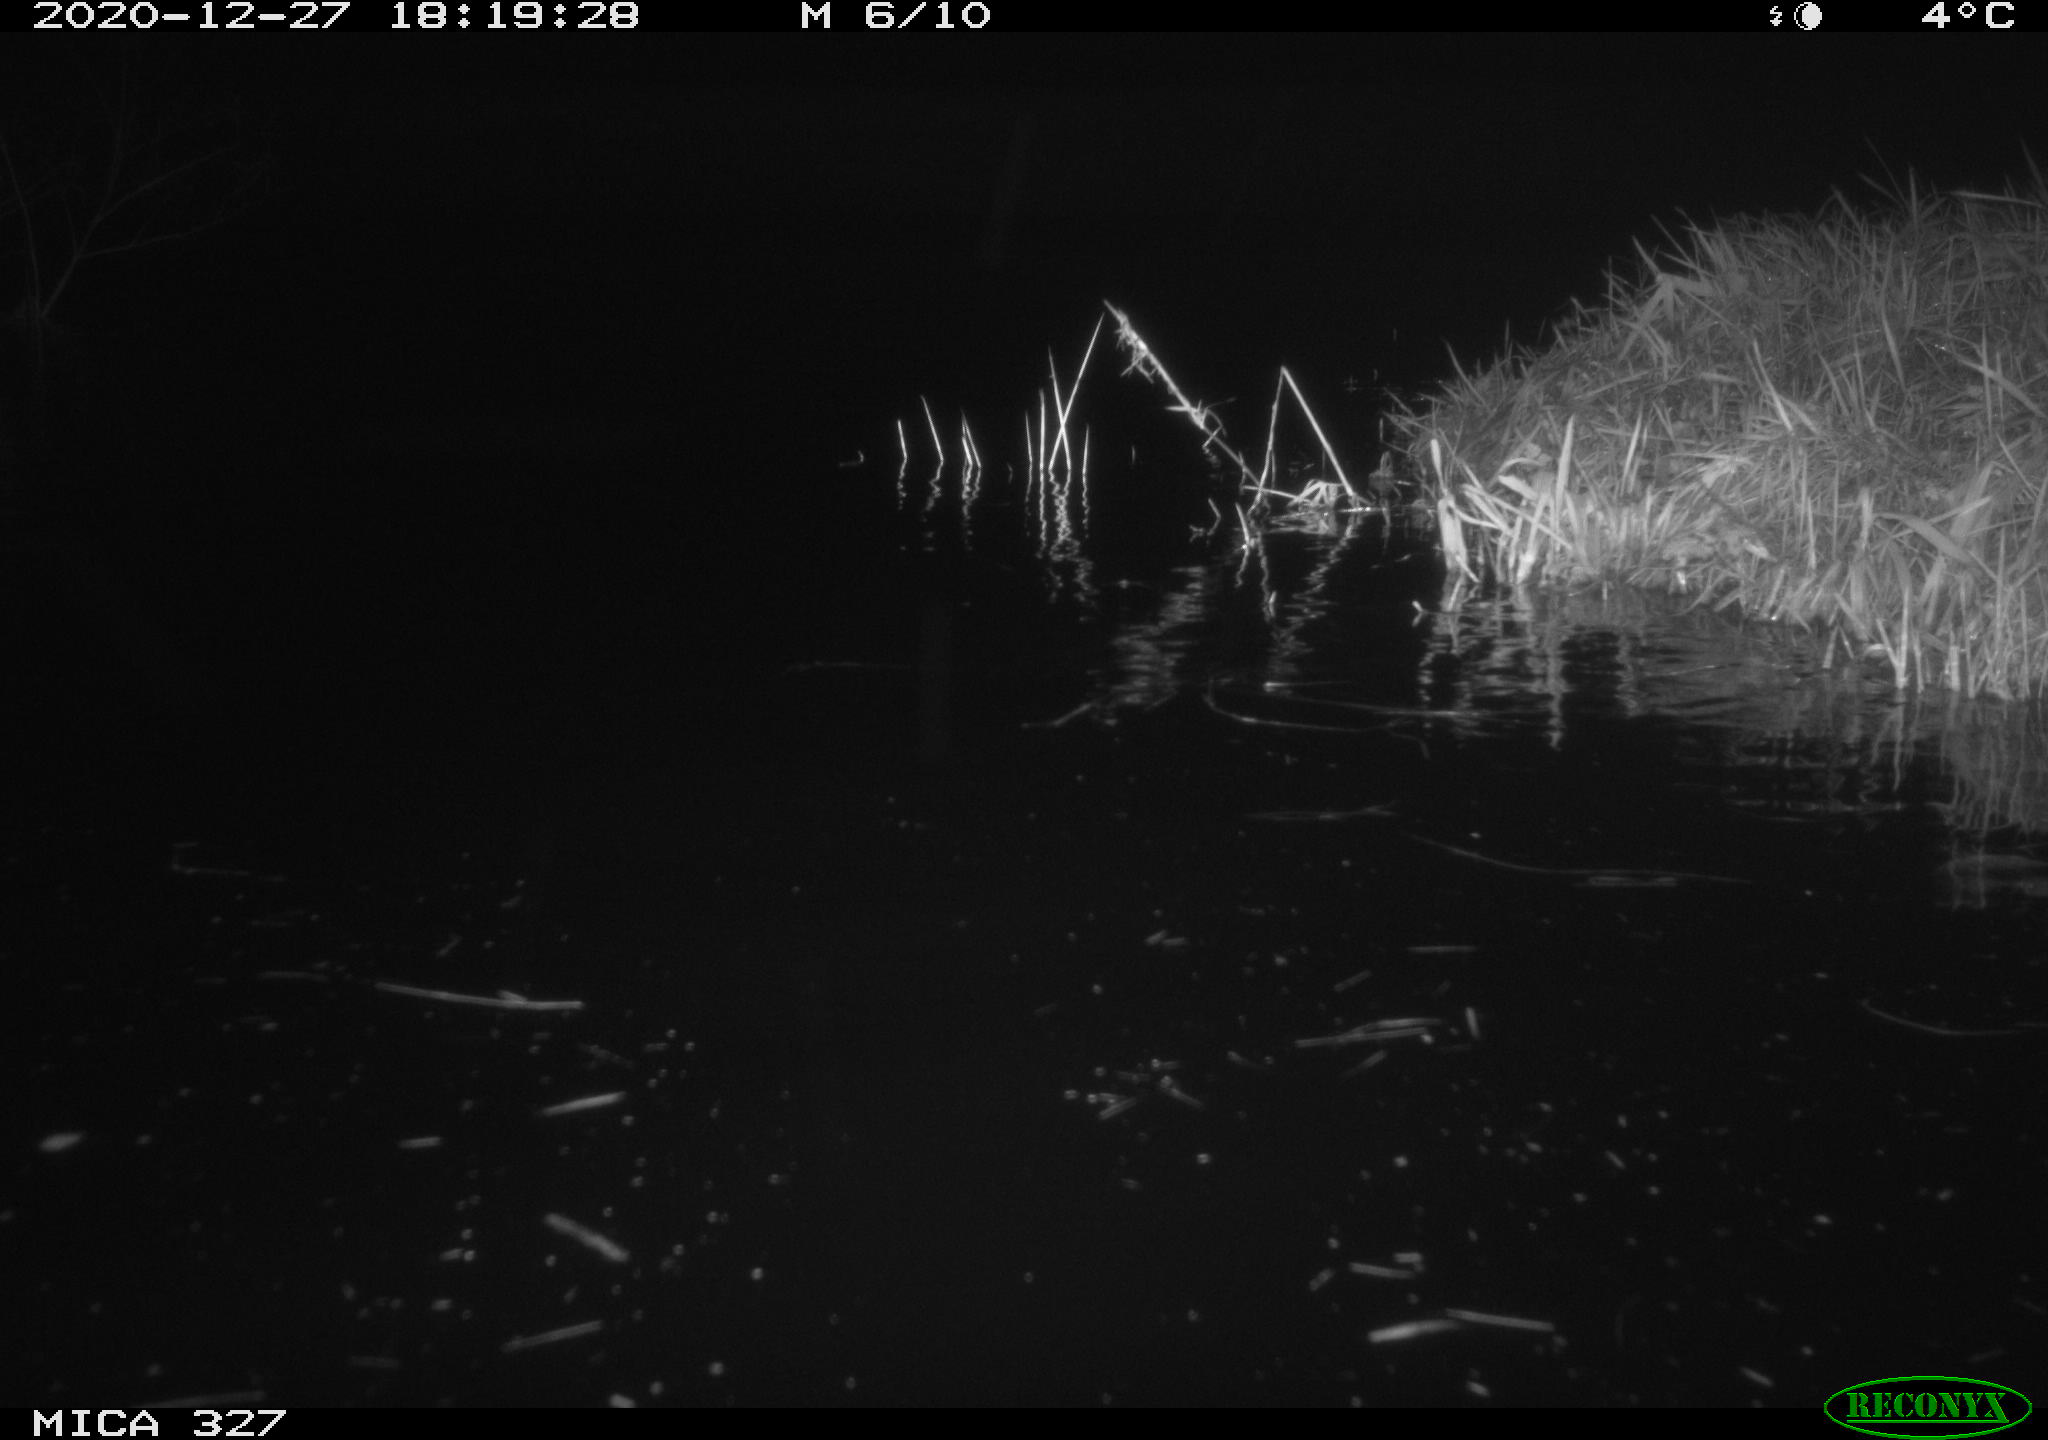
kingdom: Animalia
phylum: Chordata
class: Mammalia
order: Rodentia
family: Cricetidae
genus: Ondatra
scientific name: Ondatra zibethicus
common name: Muskrat
